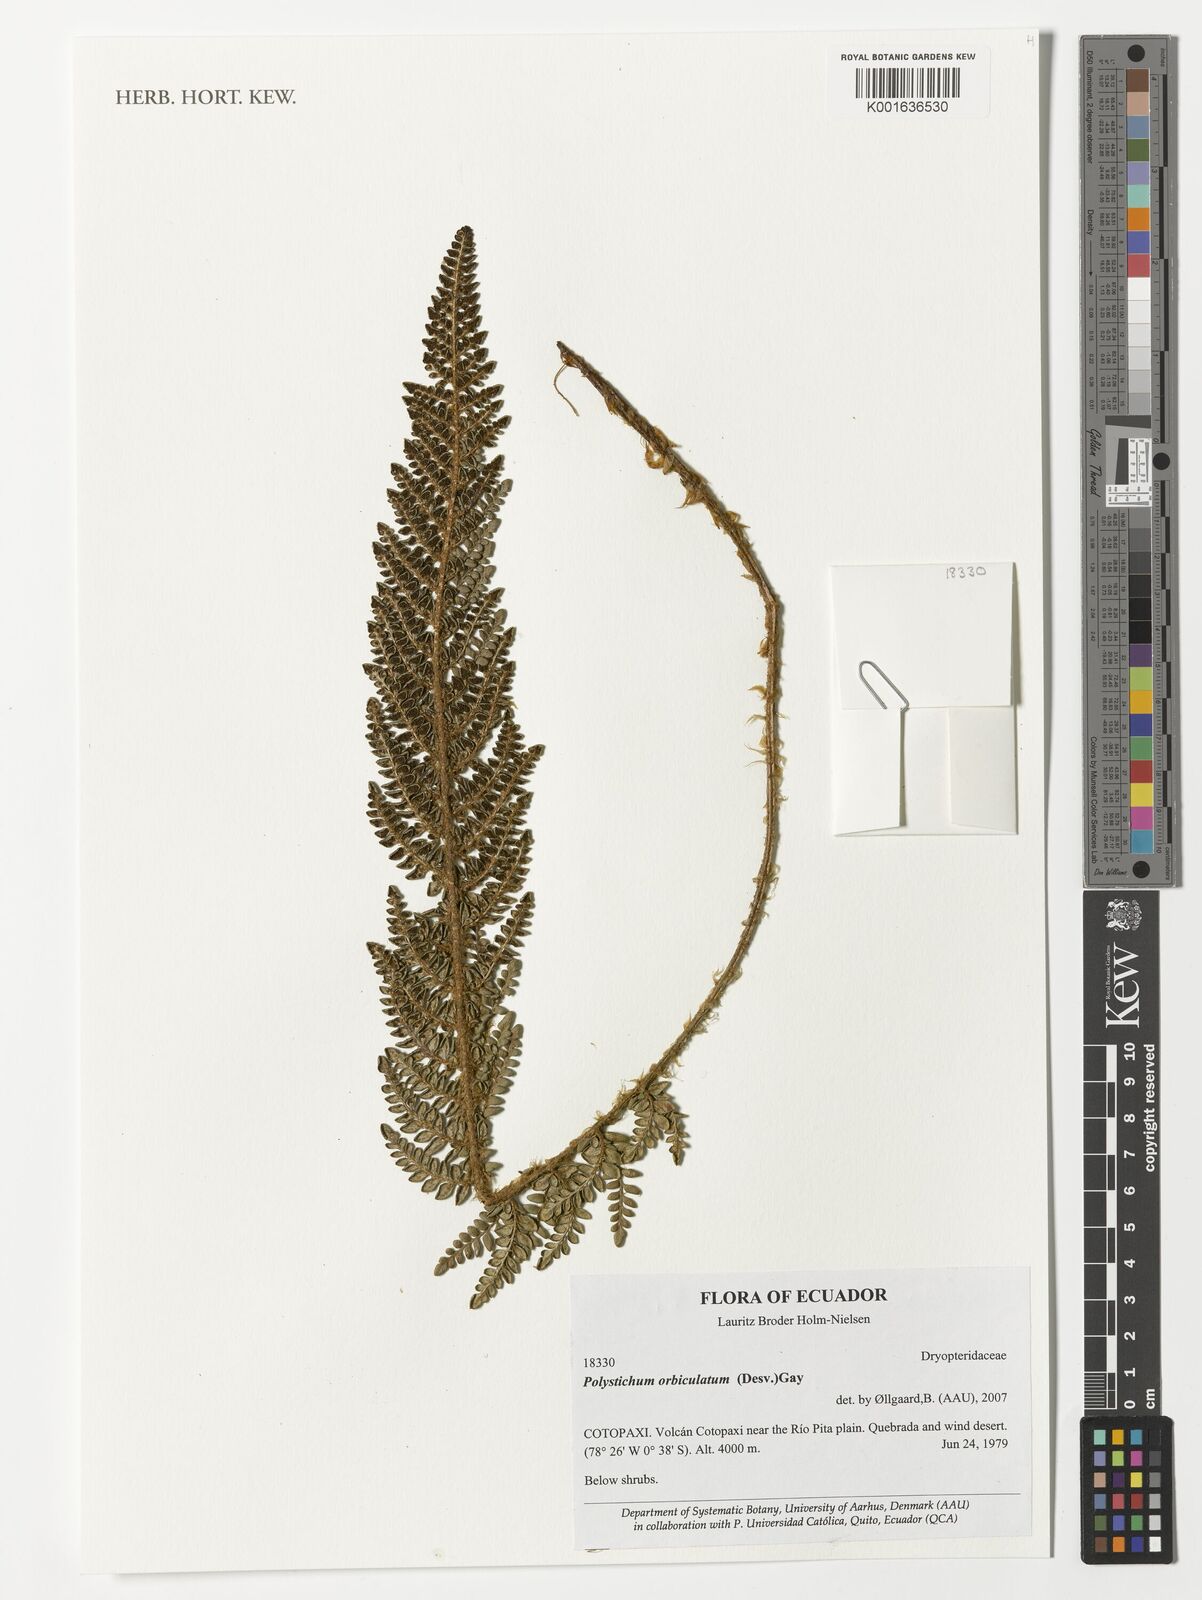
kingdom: Plantae
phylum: Tracheophyta
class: Polypodiopsida
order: Polypodiales
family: Dryopteridaceae
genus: Polystichum
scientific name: Polystichum orbiculatum
